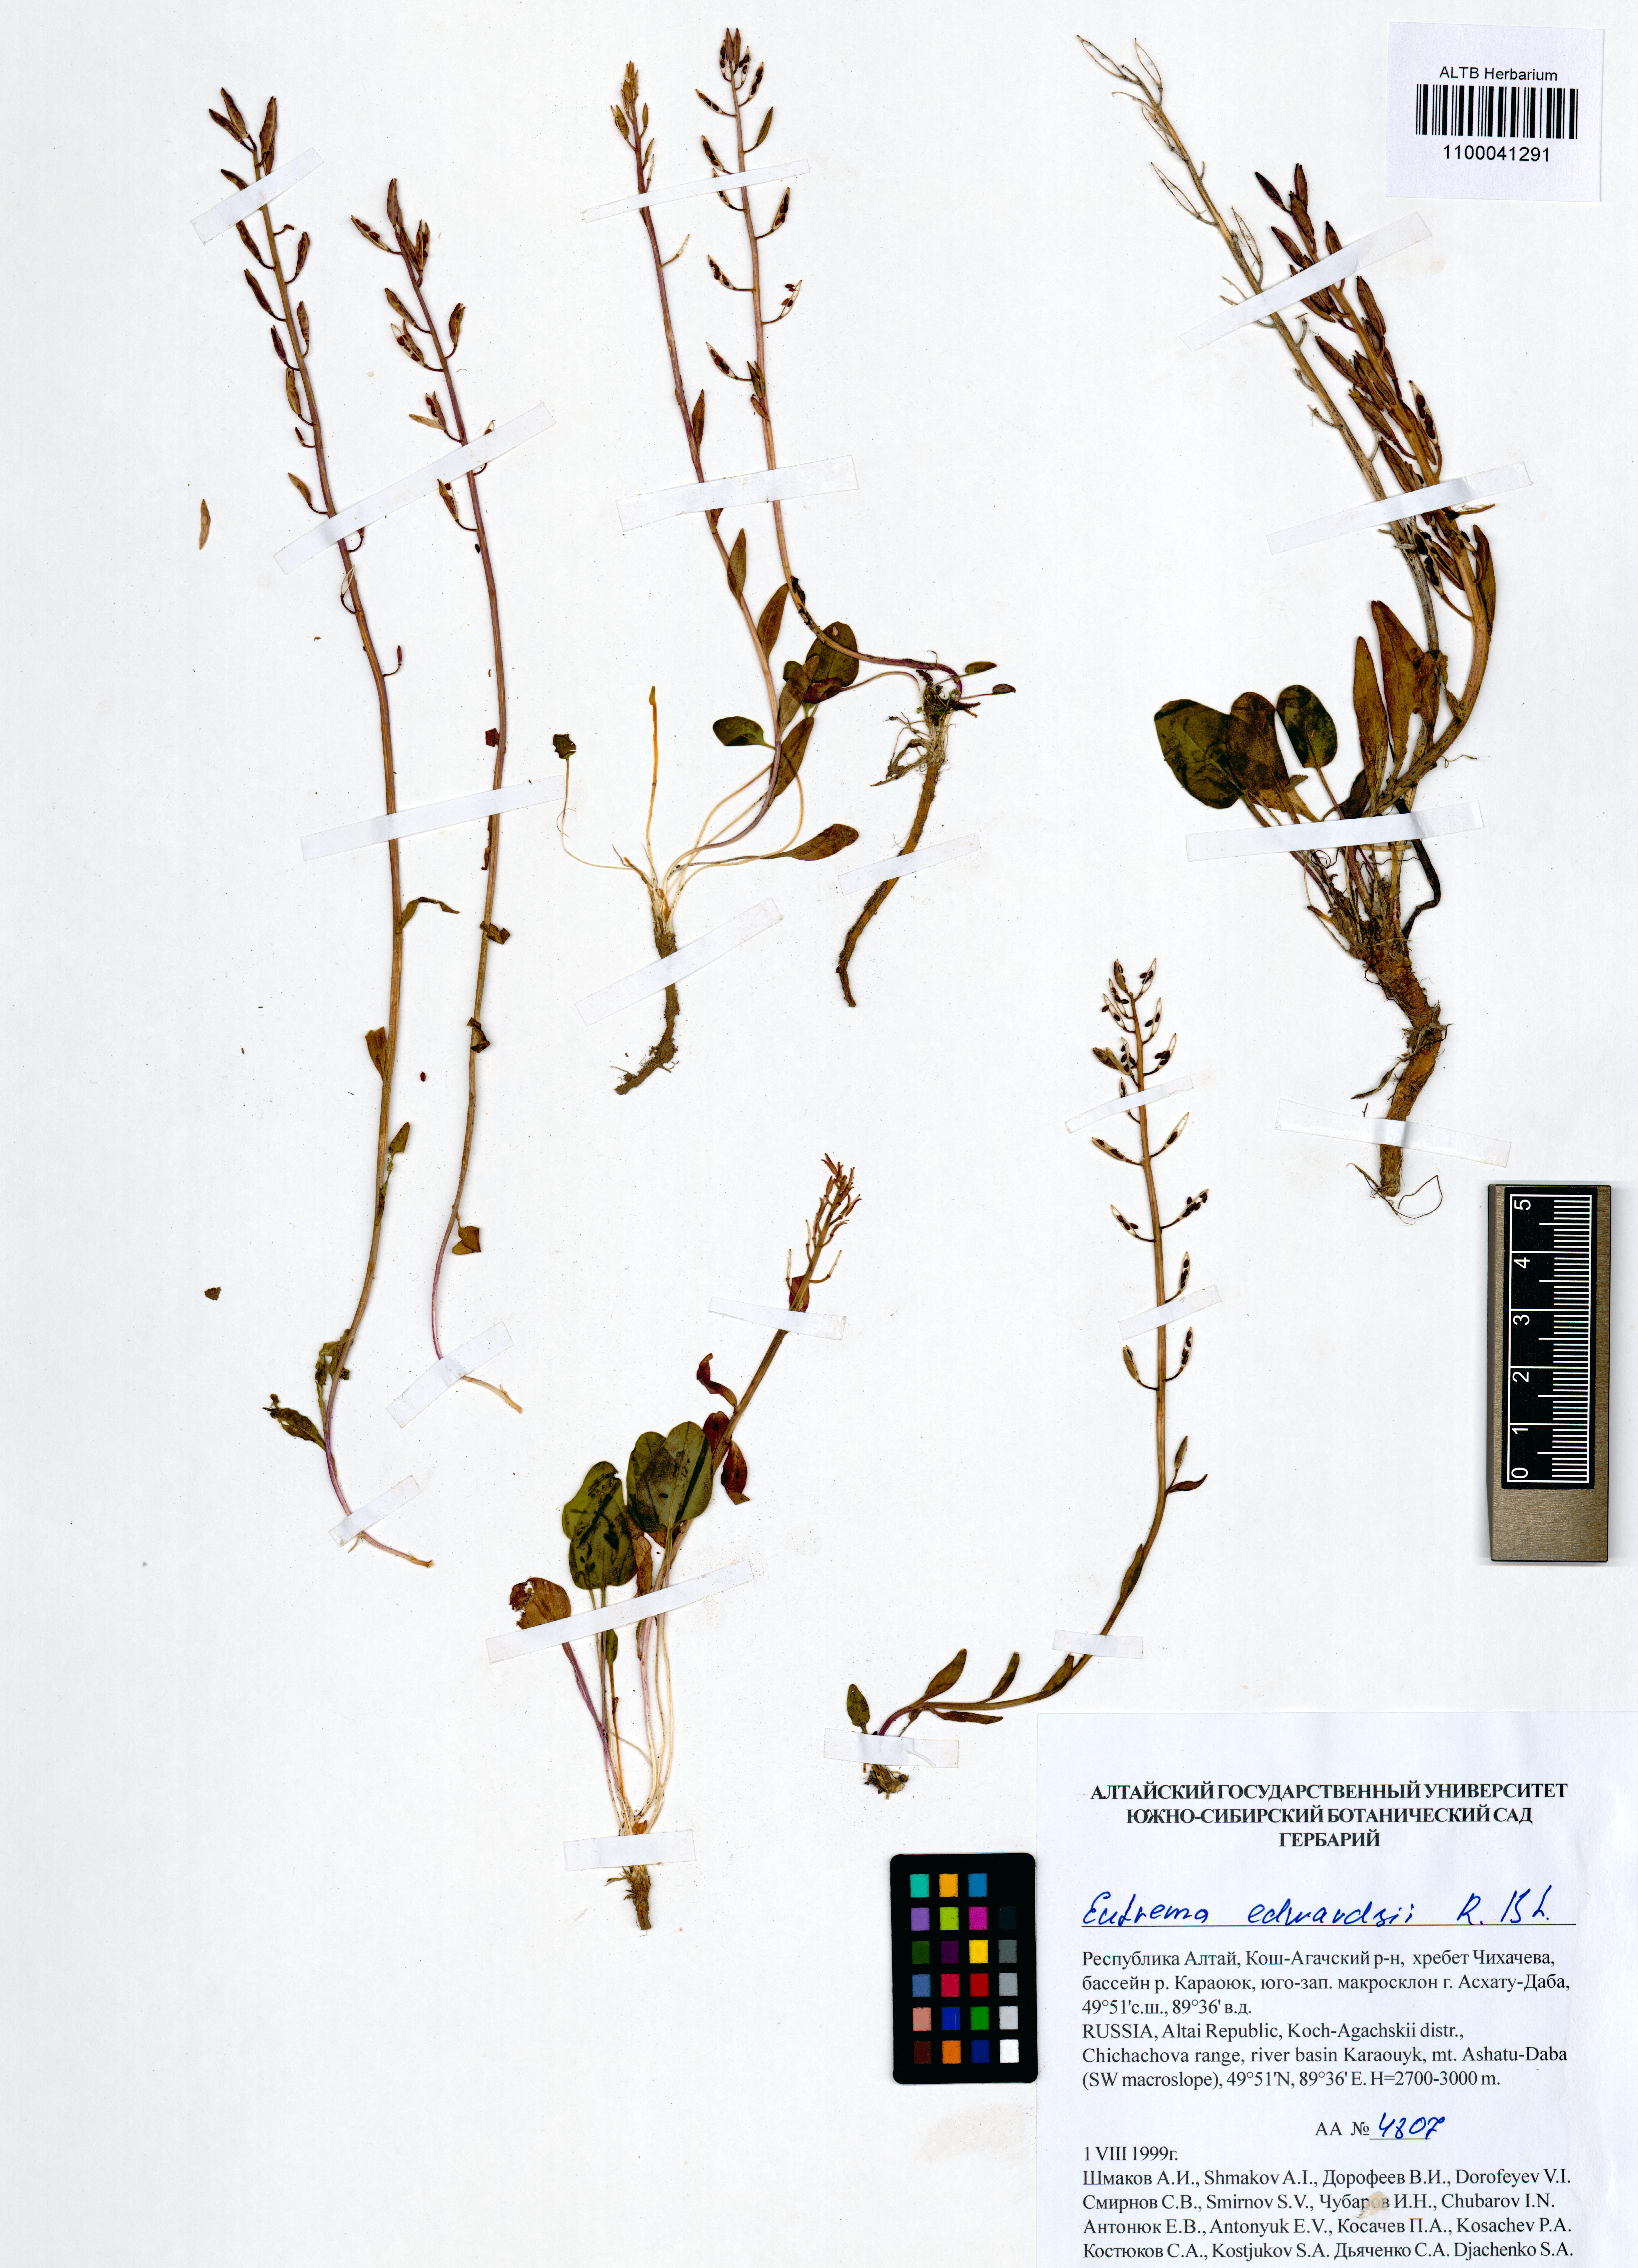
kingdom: Plantae
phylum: Tracheophyta
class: Magnoliopsida
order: Brassicales
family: Brassicaceae
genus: Eutrema
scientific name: Eutrema edwardsii
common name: Penland alpine fen mustard
